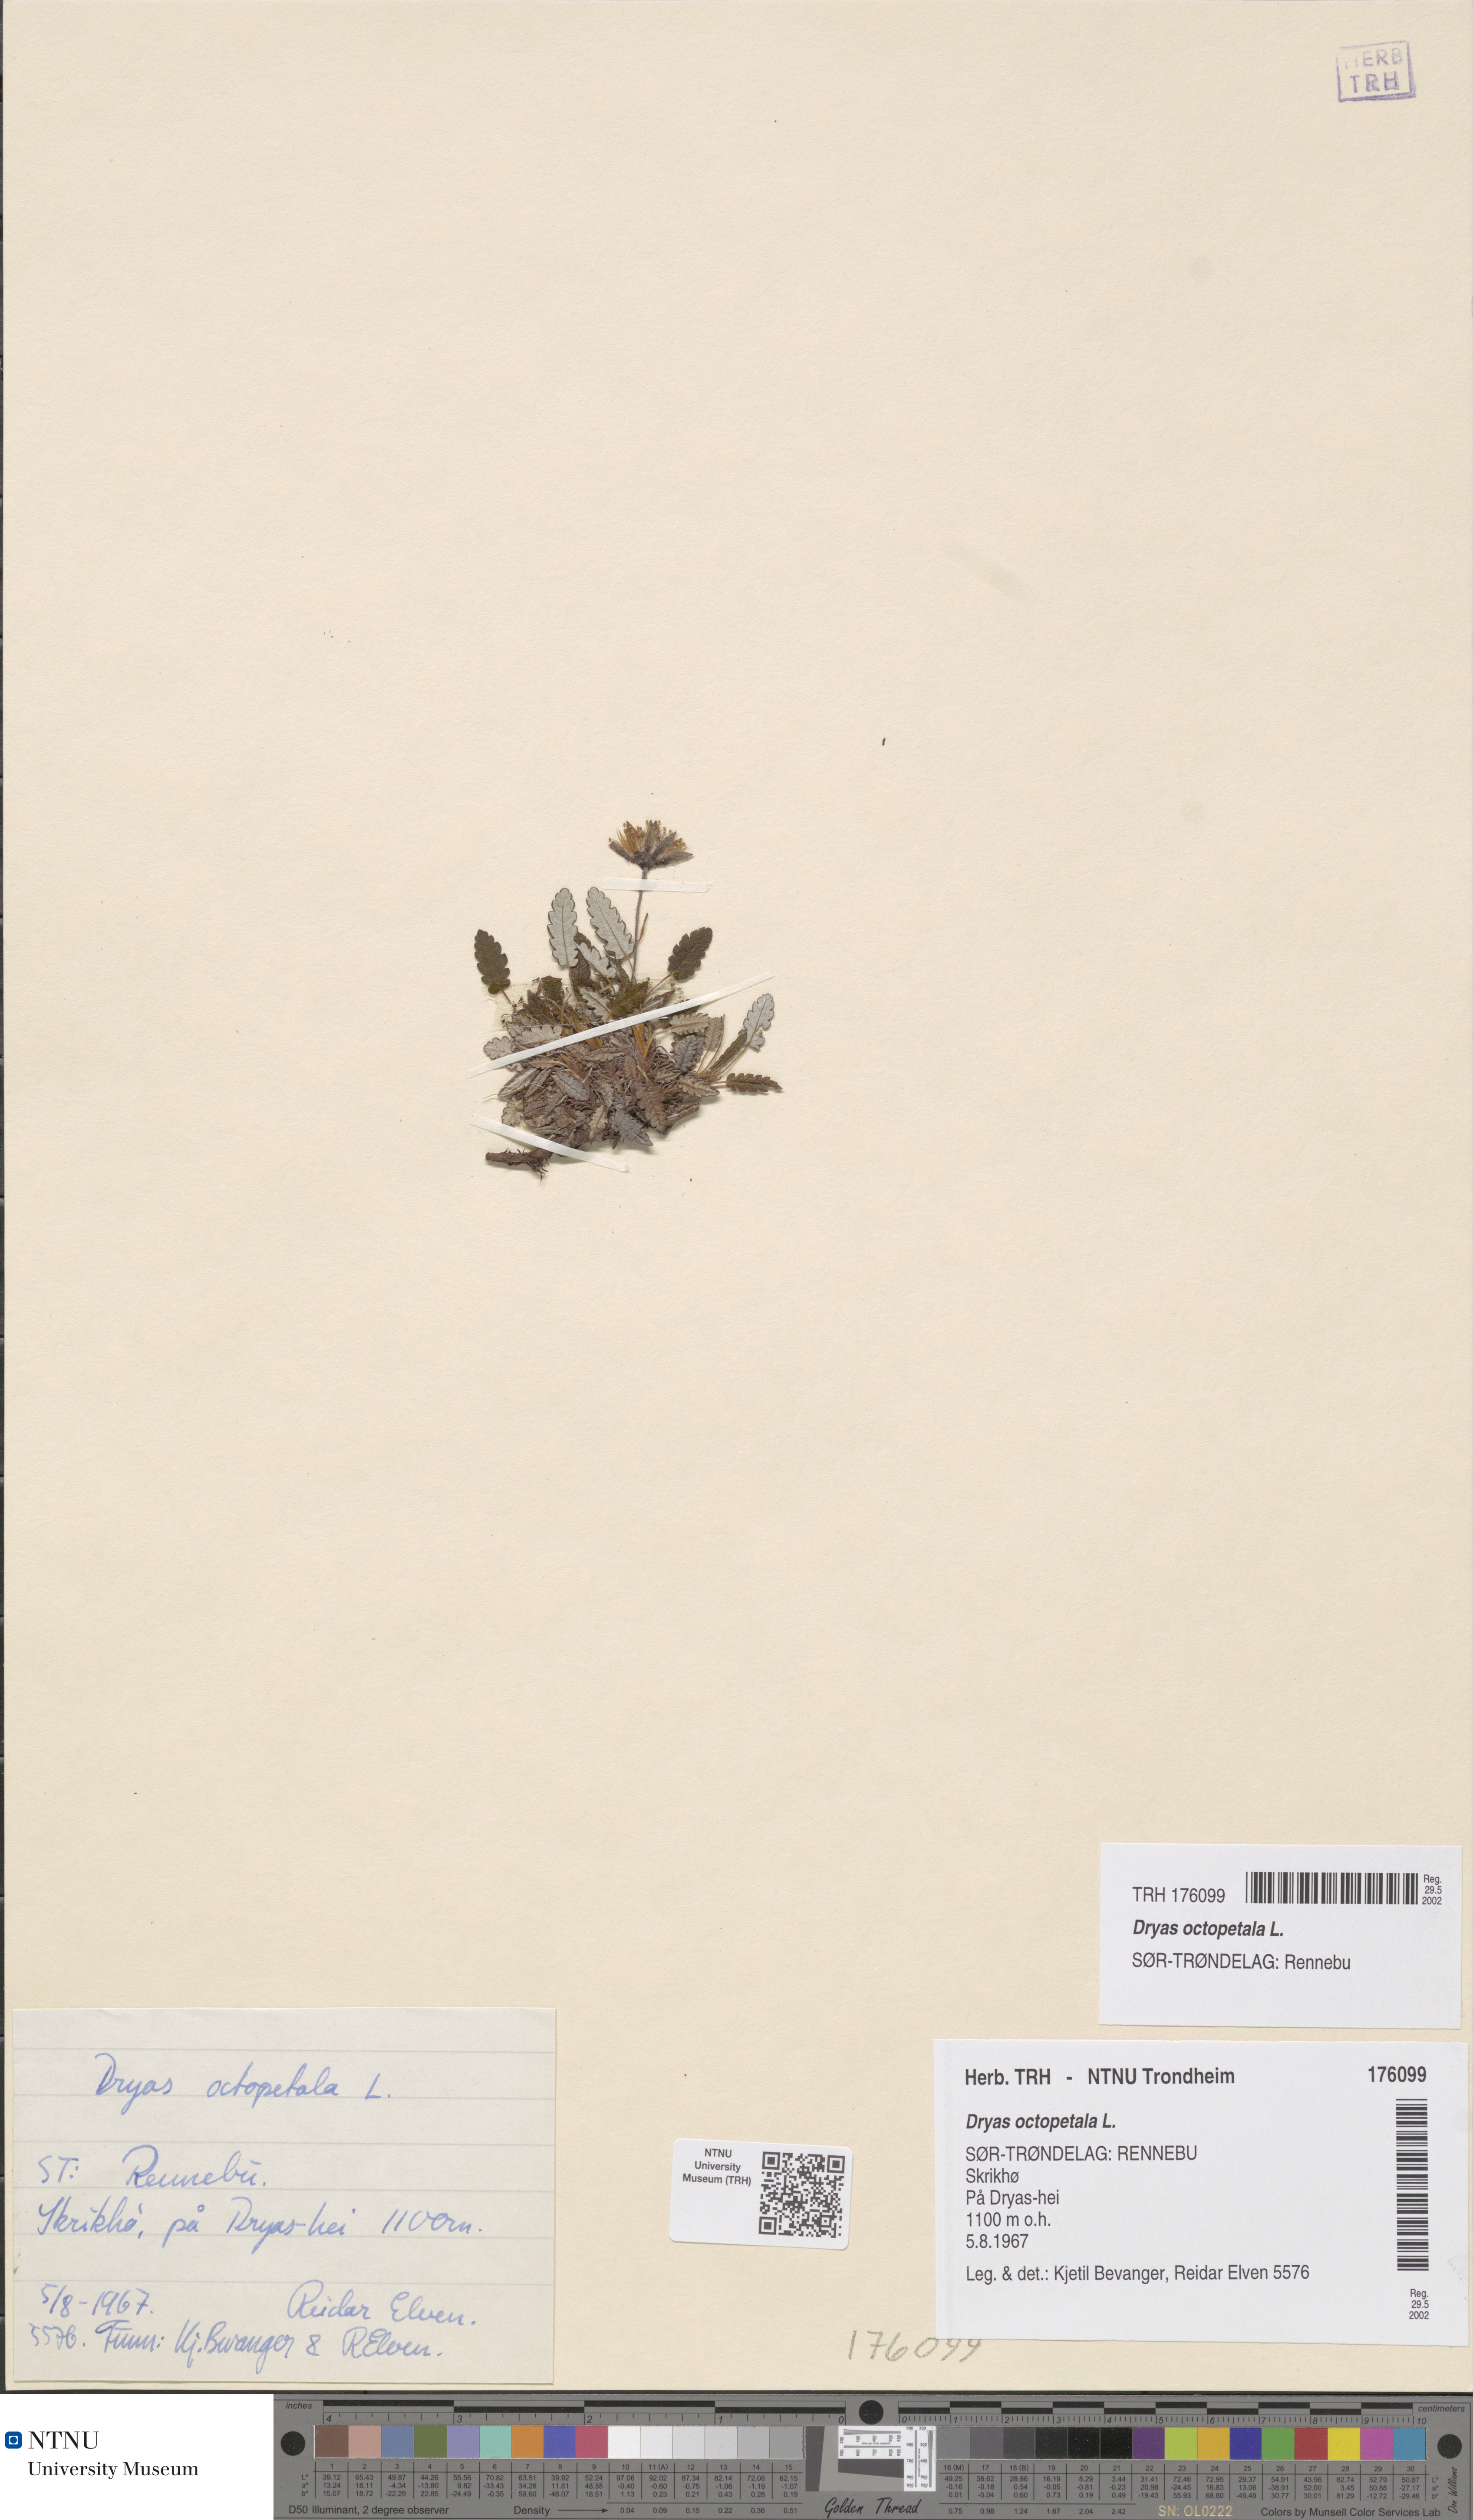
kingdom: Plantae
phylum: Tracheophyta
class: Magnoliopsida
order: Rosales
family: Rosaceae
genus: Dryas
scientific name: Dryas octopetala
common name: Eight-petal mountain-avens
